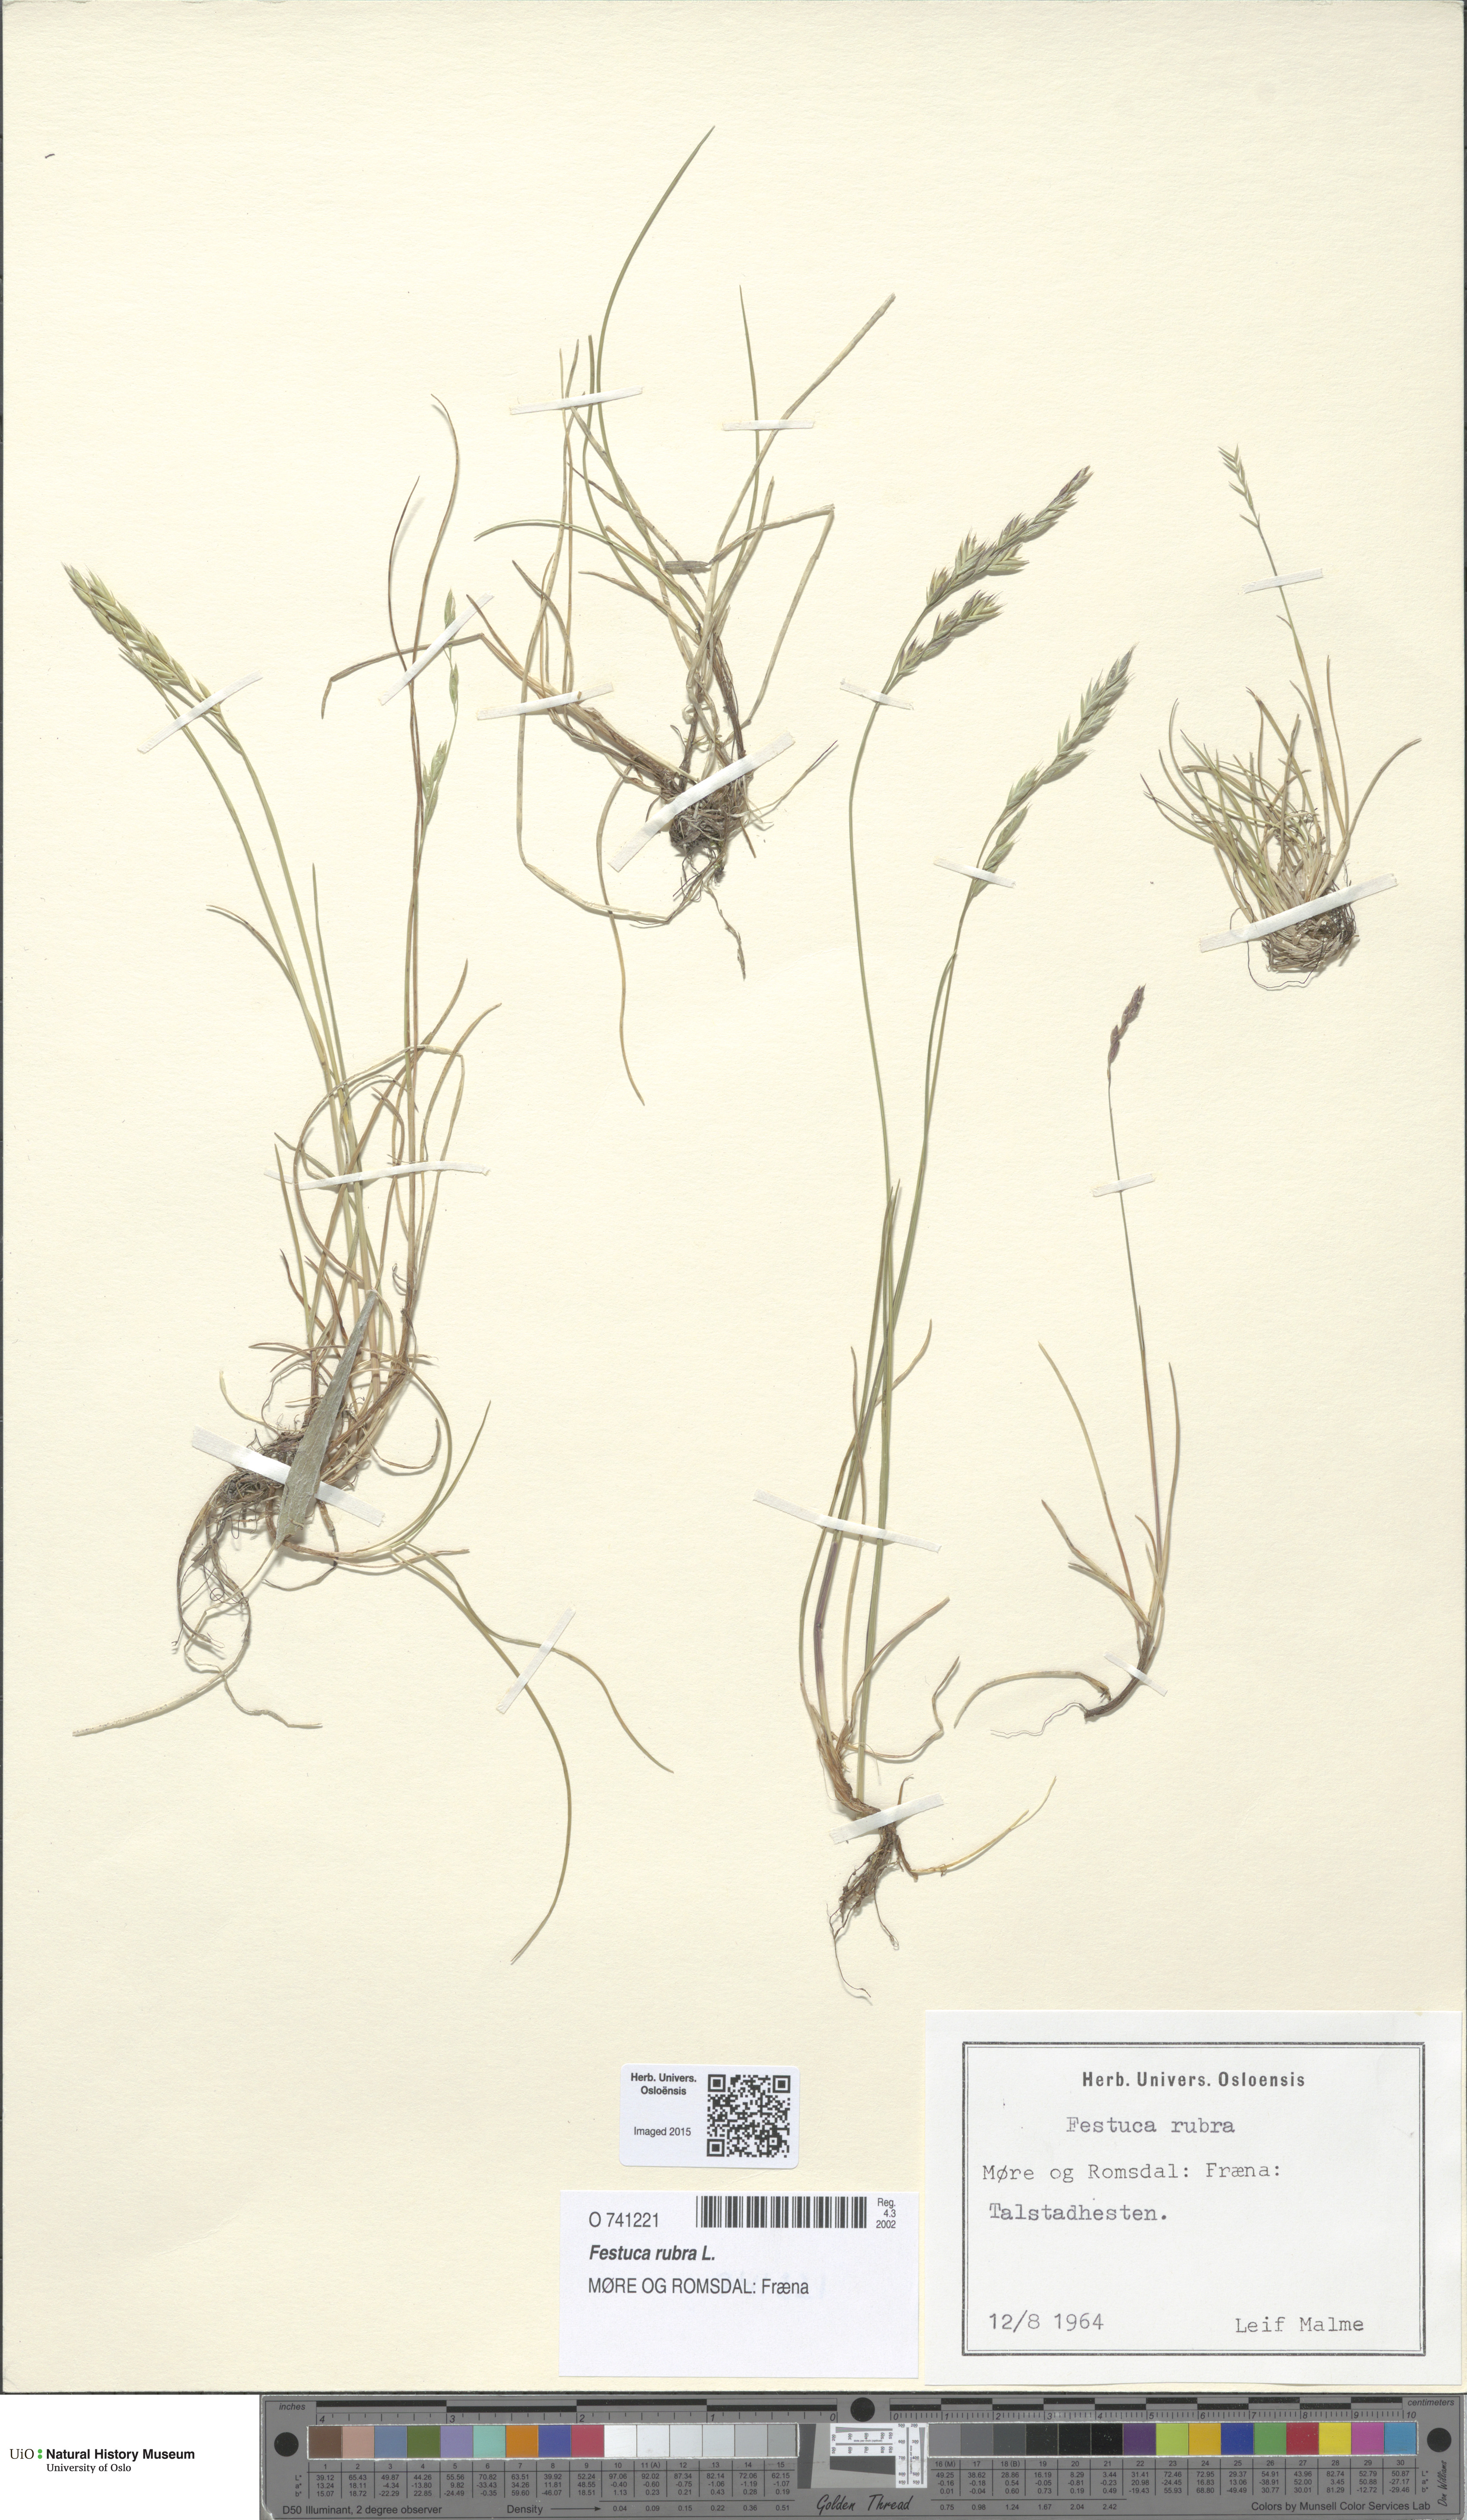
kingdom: Plantae
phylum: Tracheophyta
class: Liliopsida
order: Poales
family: Poaceae
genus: Festuca
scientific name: Festuca rubra
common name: Red fescue
